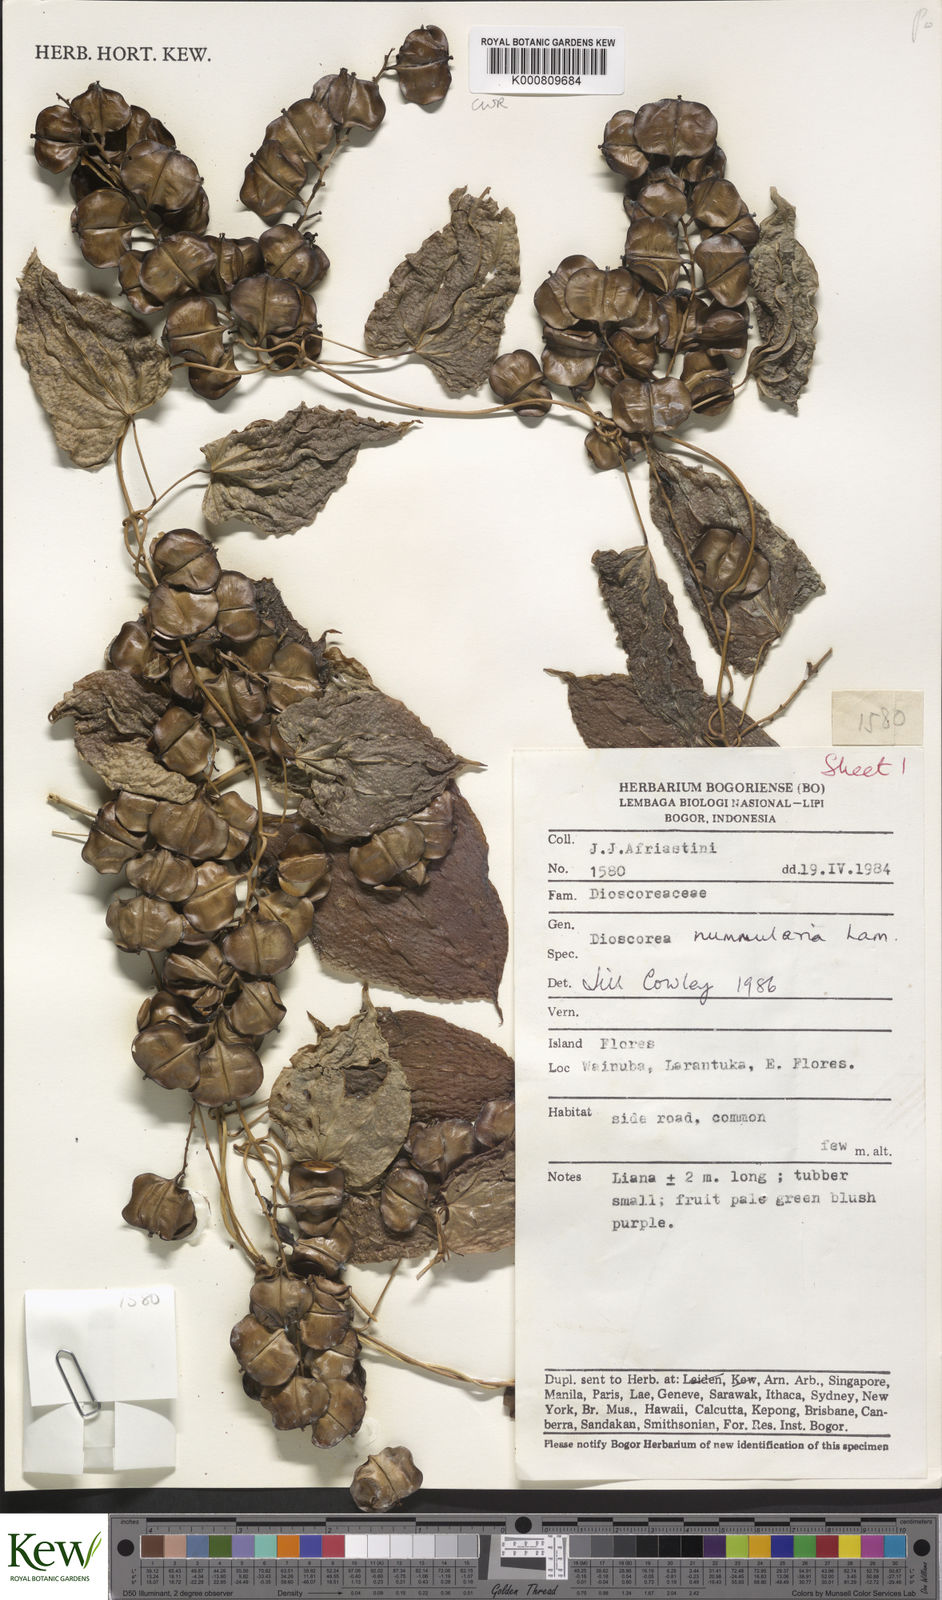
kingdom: Plantae
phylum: Tracheophyta
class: Liliopsida
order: Dioscoreales
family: Dioscoreaceae
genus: Dioscorea
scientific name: Dioscorea nummularia
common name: Pacific yam
